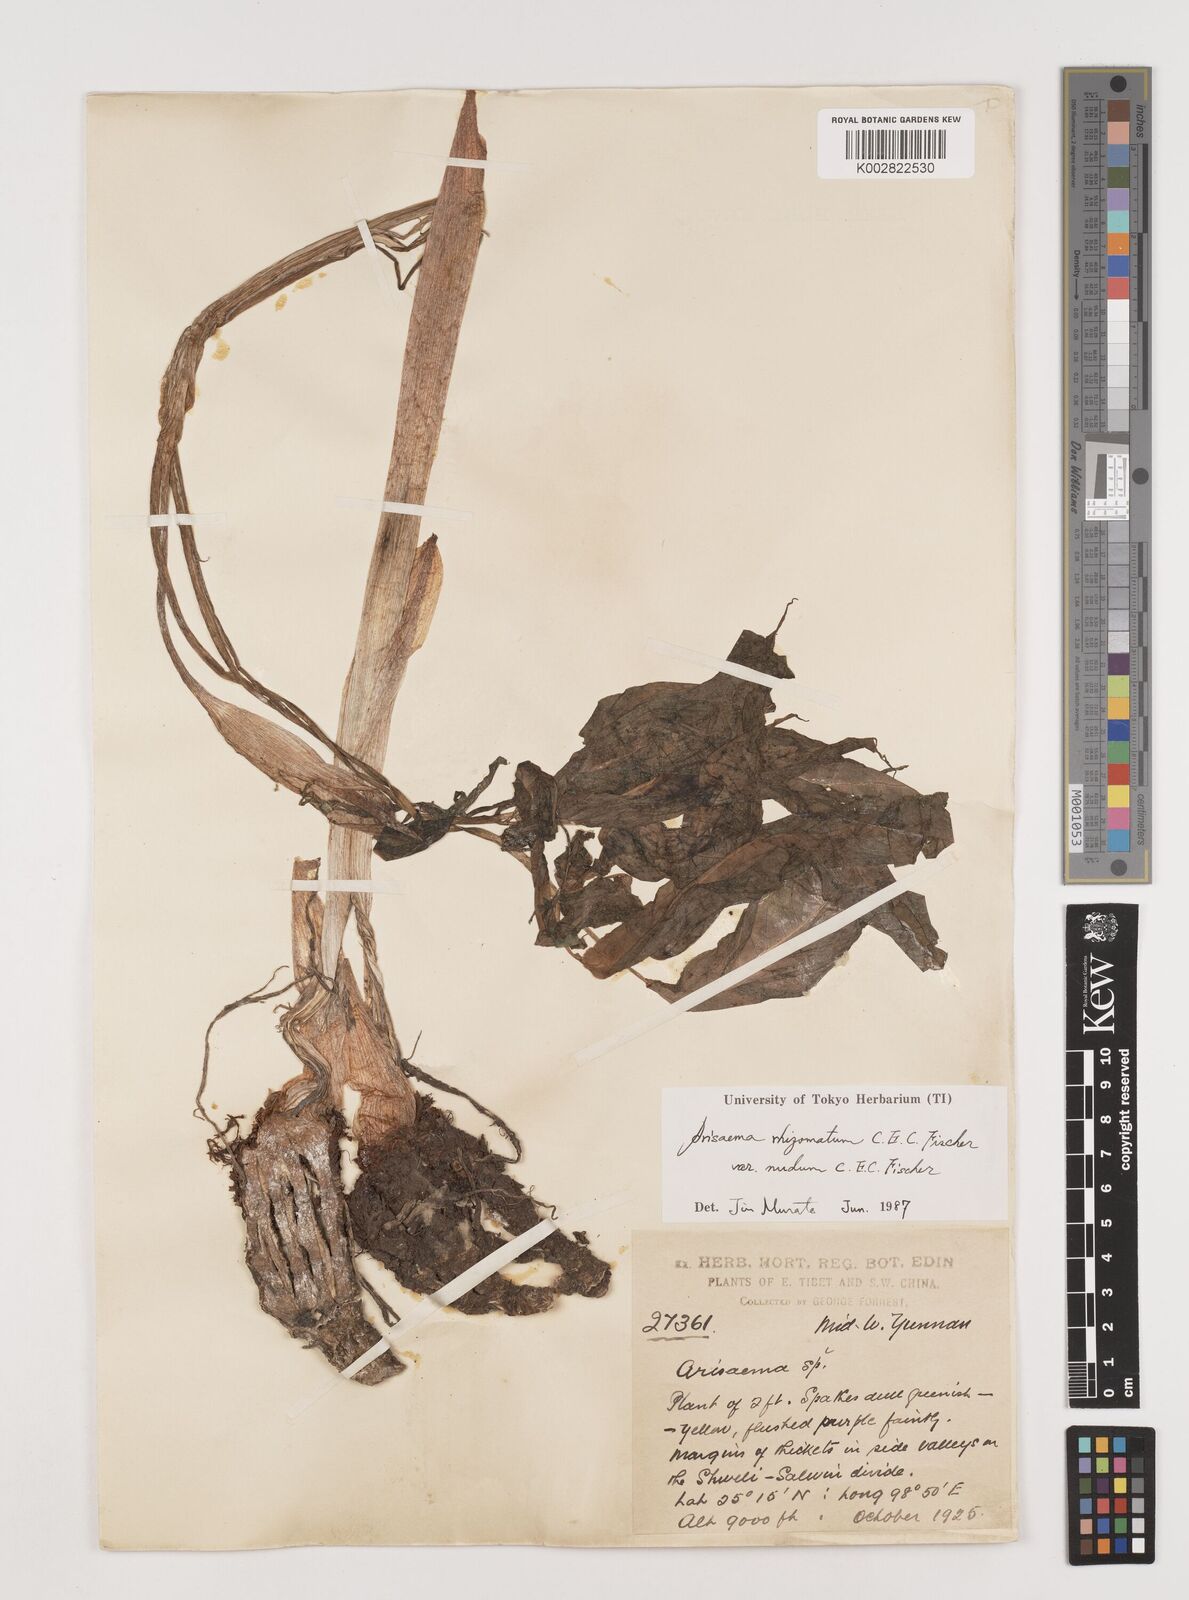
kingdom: Plantae
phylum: Tracheophyta
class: Liliopsida
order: Alismatales
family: Araceae
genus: Arisaema
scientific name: Arisaema decipiens
